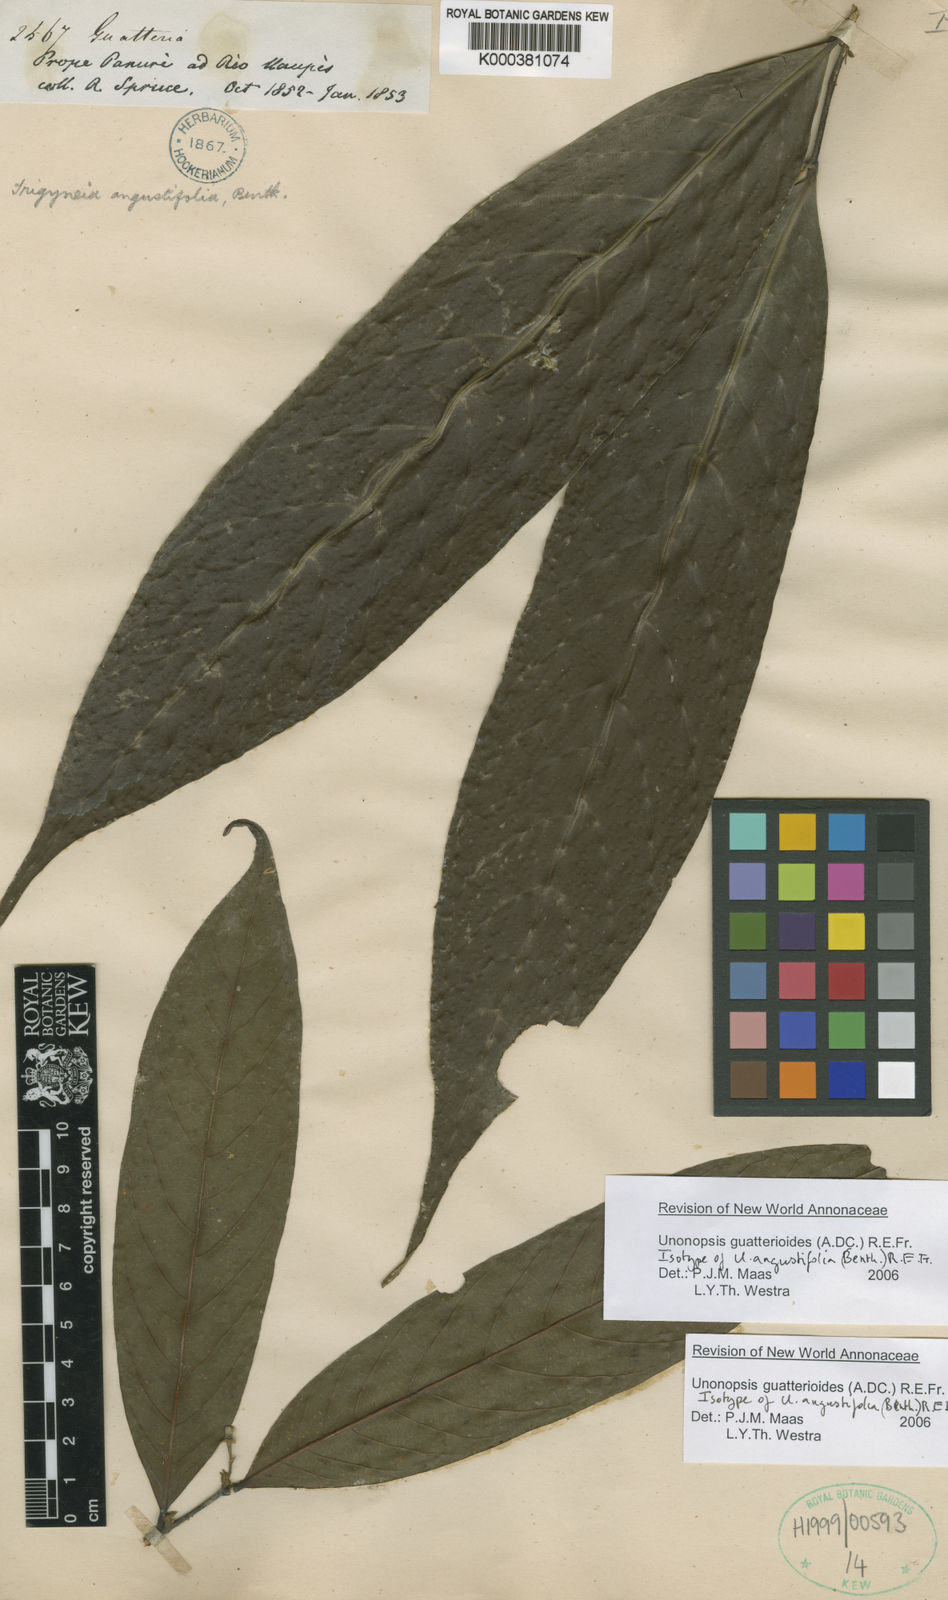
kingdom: Plantae
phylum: Tracheophyta
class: Magnoliopsida
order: Magnoliales
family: Annonaceae
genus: Unonopsis
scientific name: Unonopsis guatterioides
